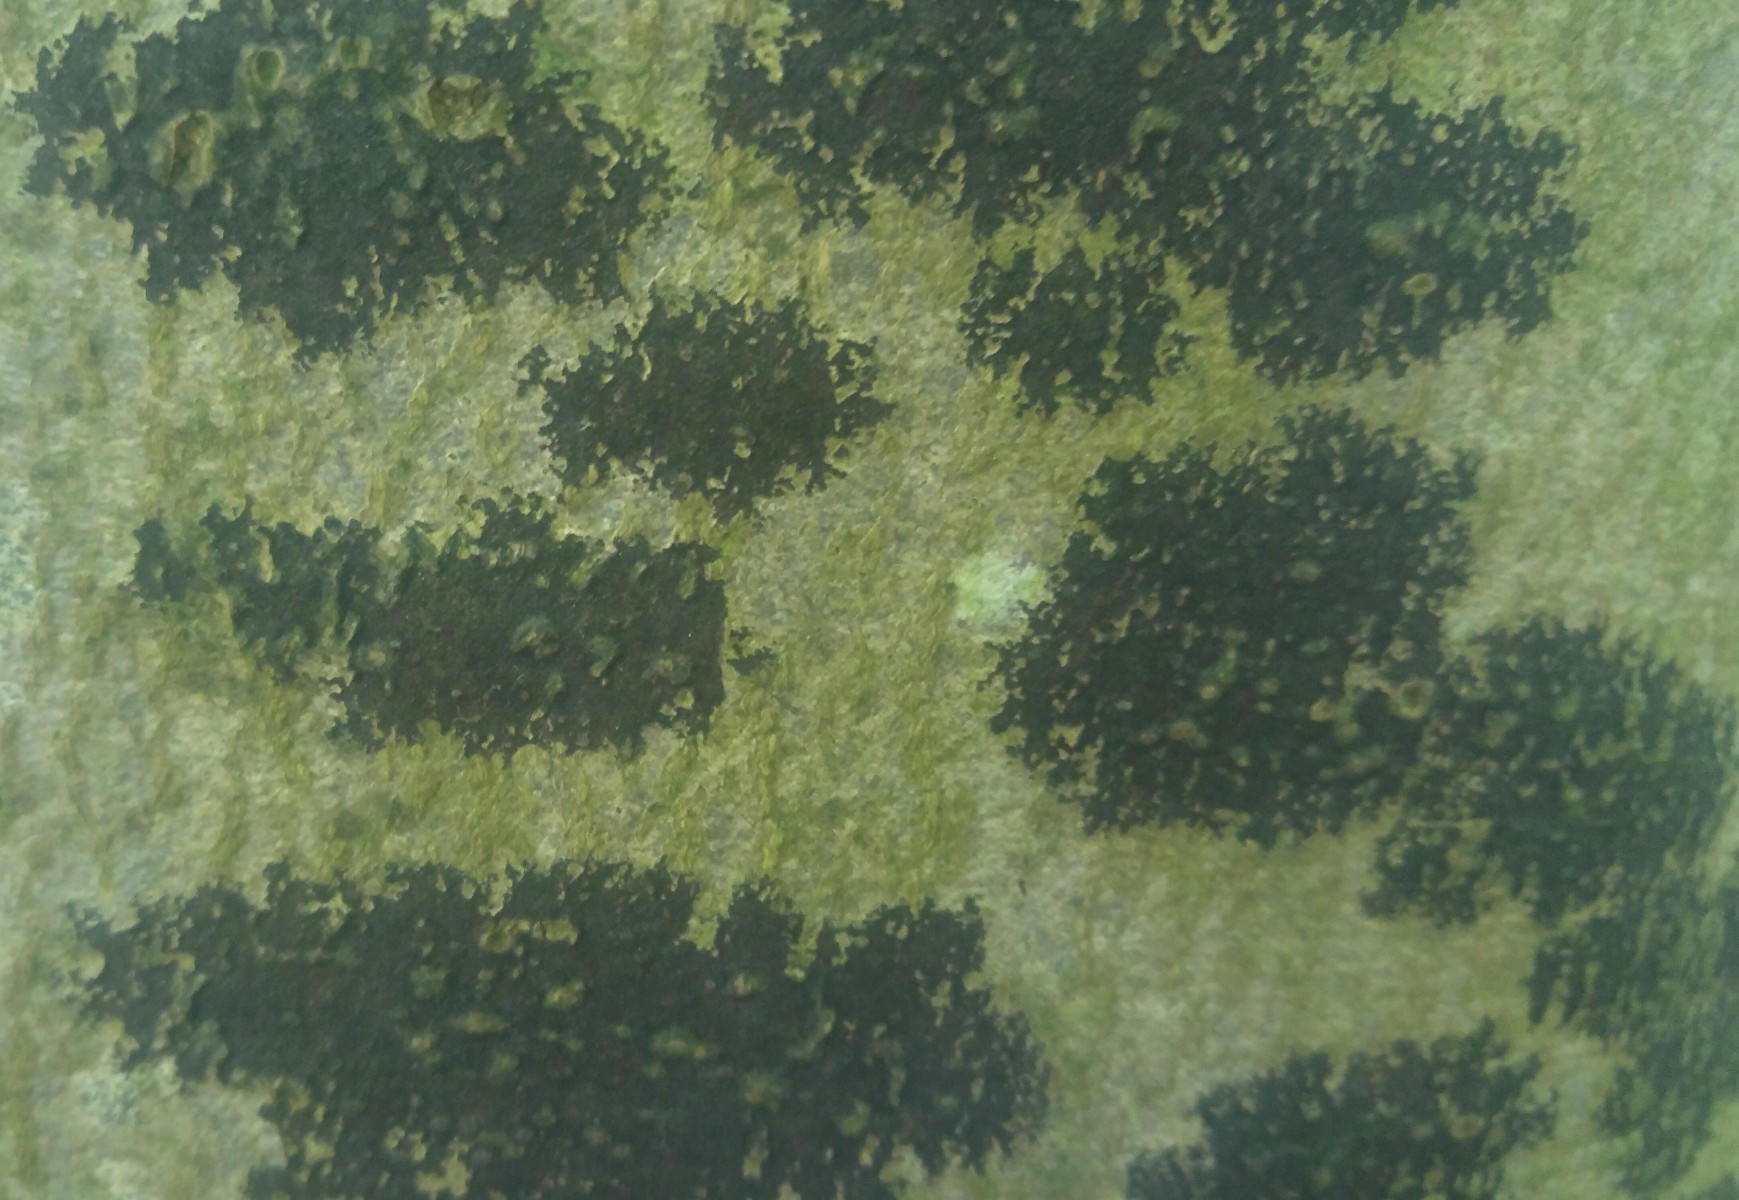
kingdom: Fungi
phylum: Ascomycota
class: Leotiomycetes
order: Rhytismatales
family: Ascodichaenaceae
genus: Ascodichaena
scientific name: Ascodichaena rugosa
